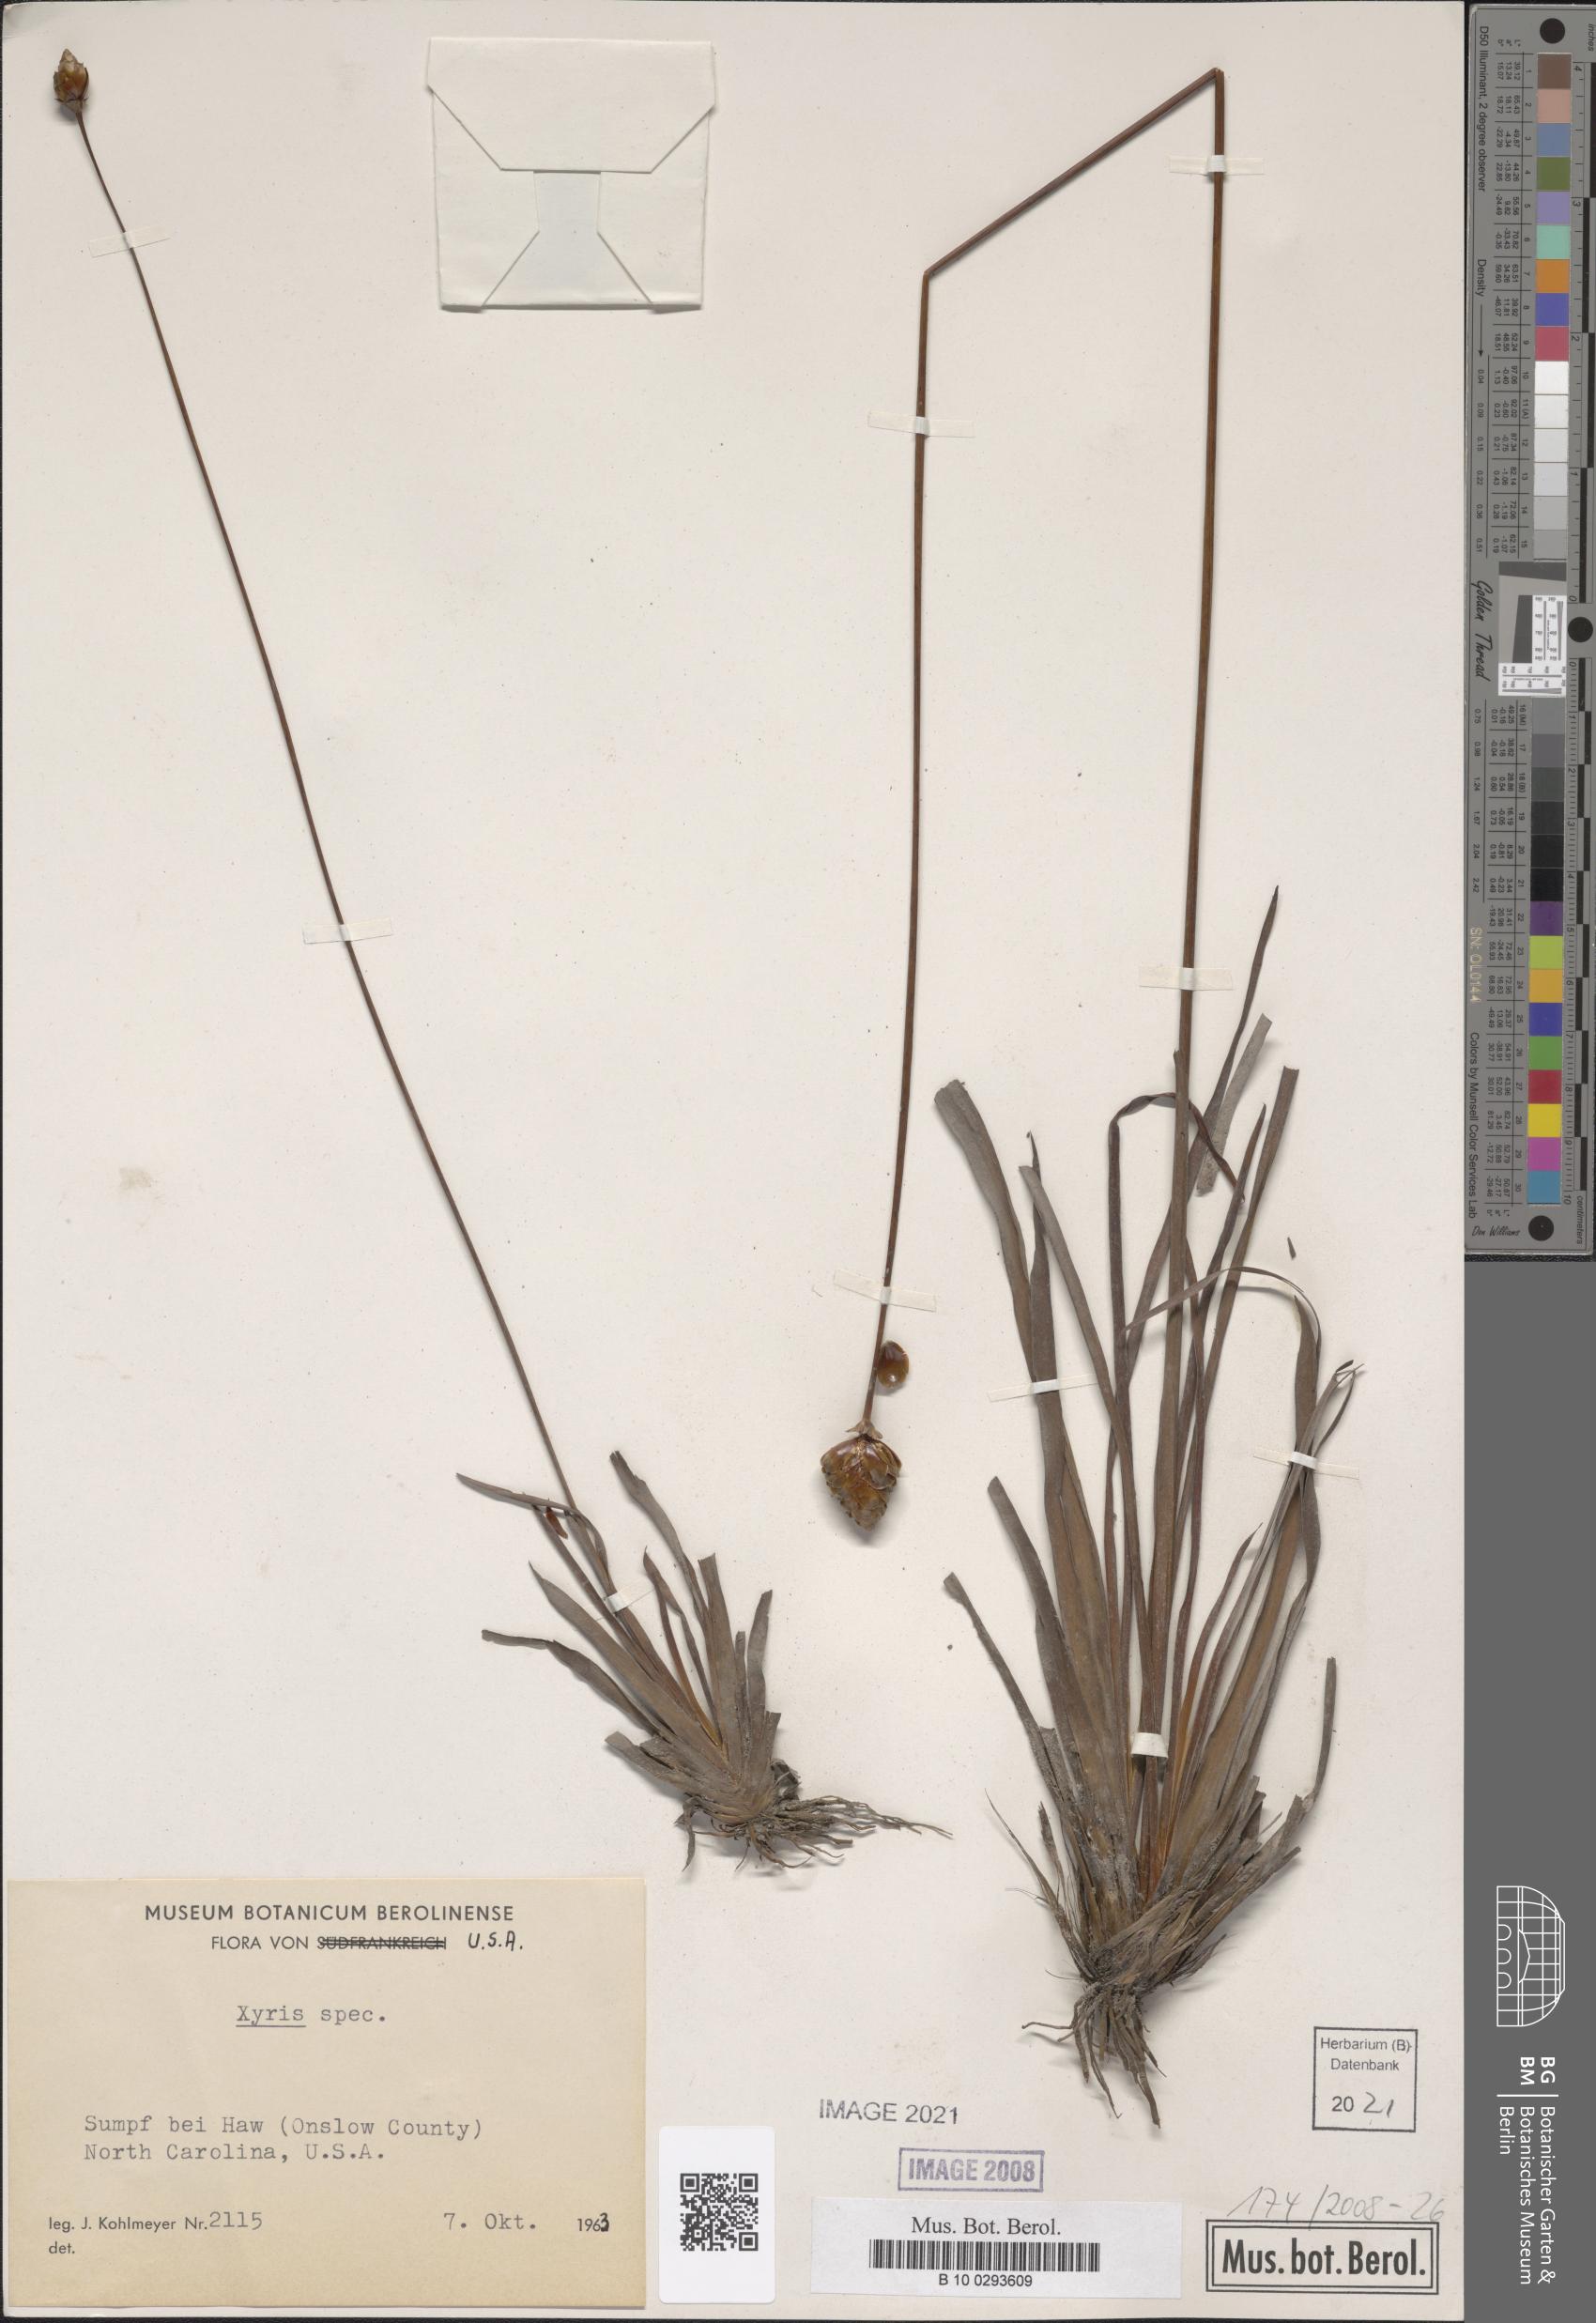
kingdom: Plantae
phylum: Tracheophyta
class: Liliopsida
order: Poales
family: Xyridaceae
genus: Xyris
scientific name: Xyris
